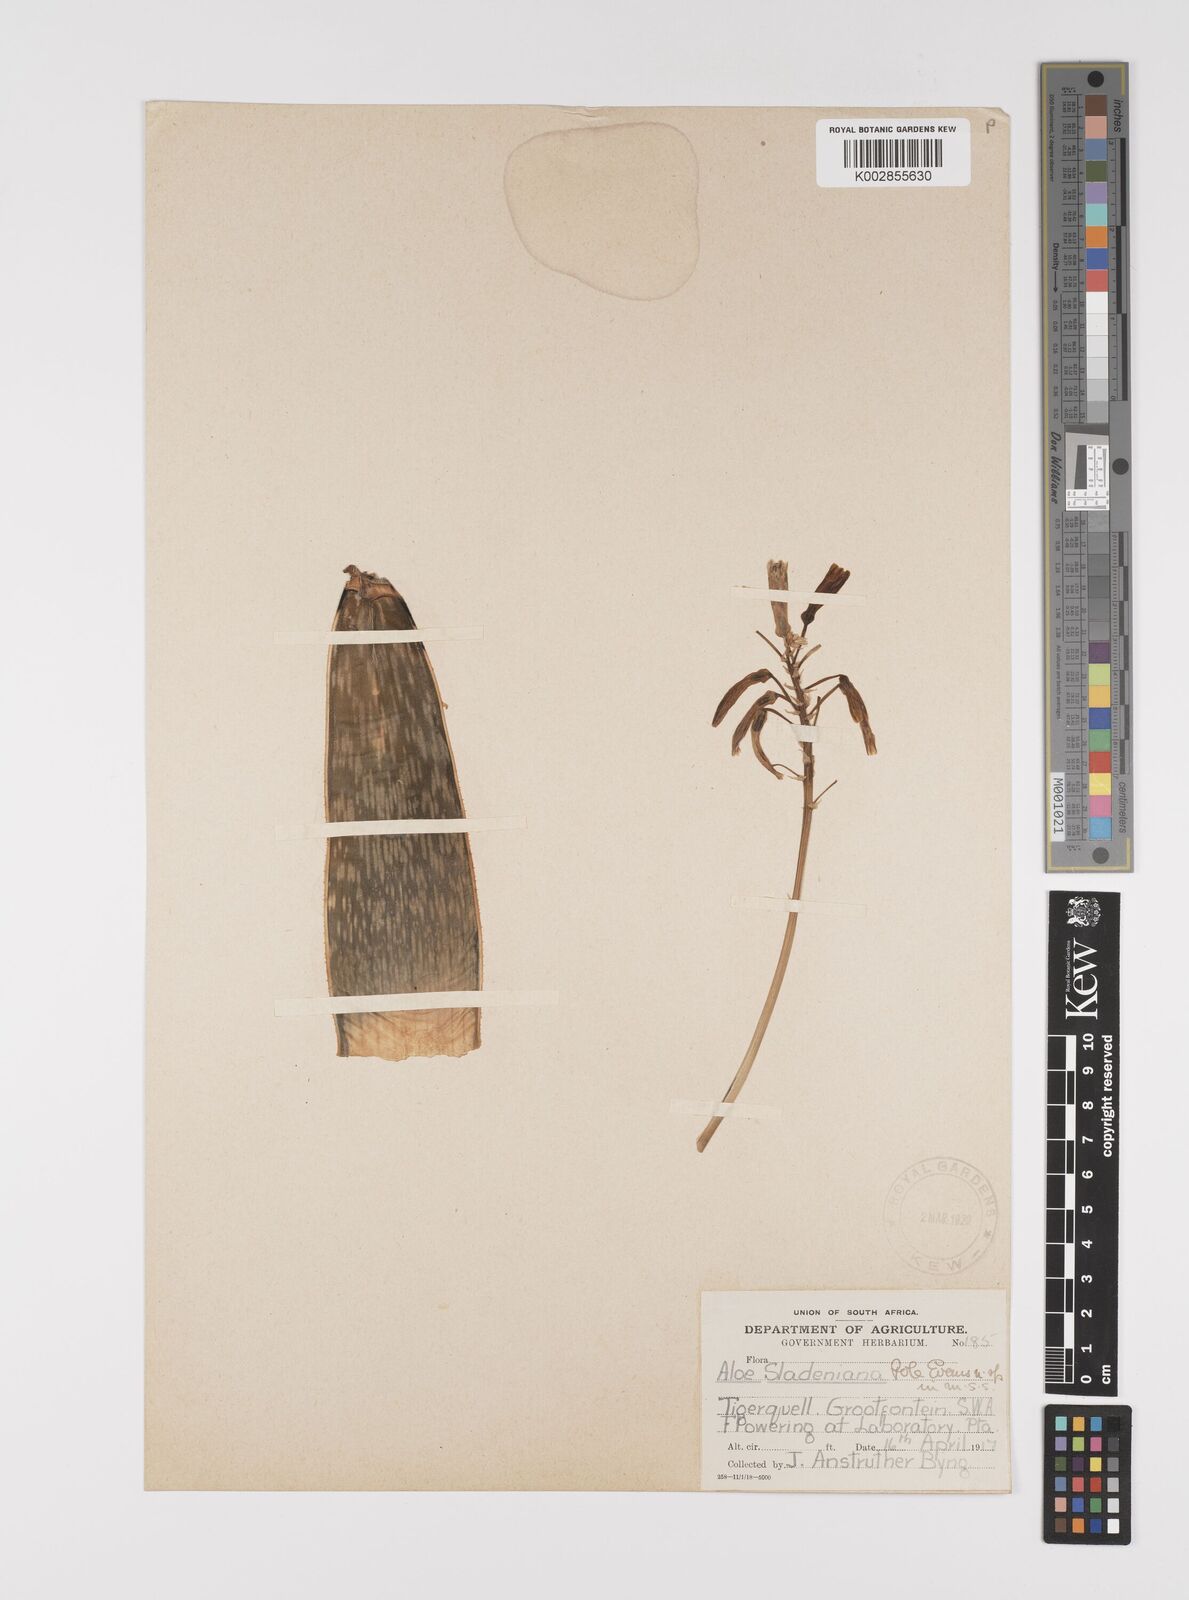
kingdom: Plantae
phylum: Tracheophyta
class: Liliopsida
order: Asparagales
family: Asphodelaceae
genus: Gonialoe
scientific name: Gonialoe sladeniana
